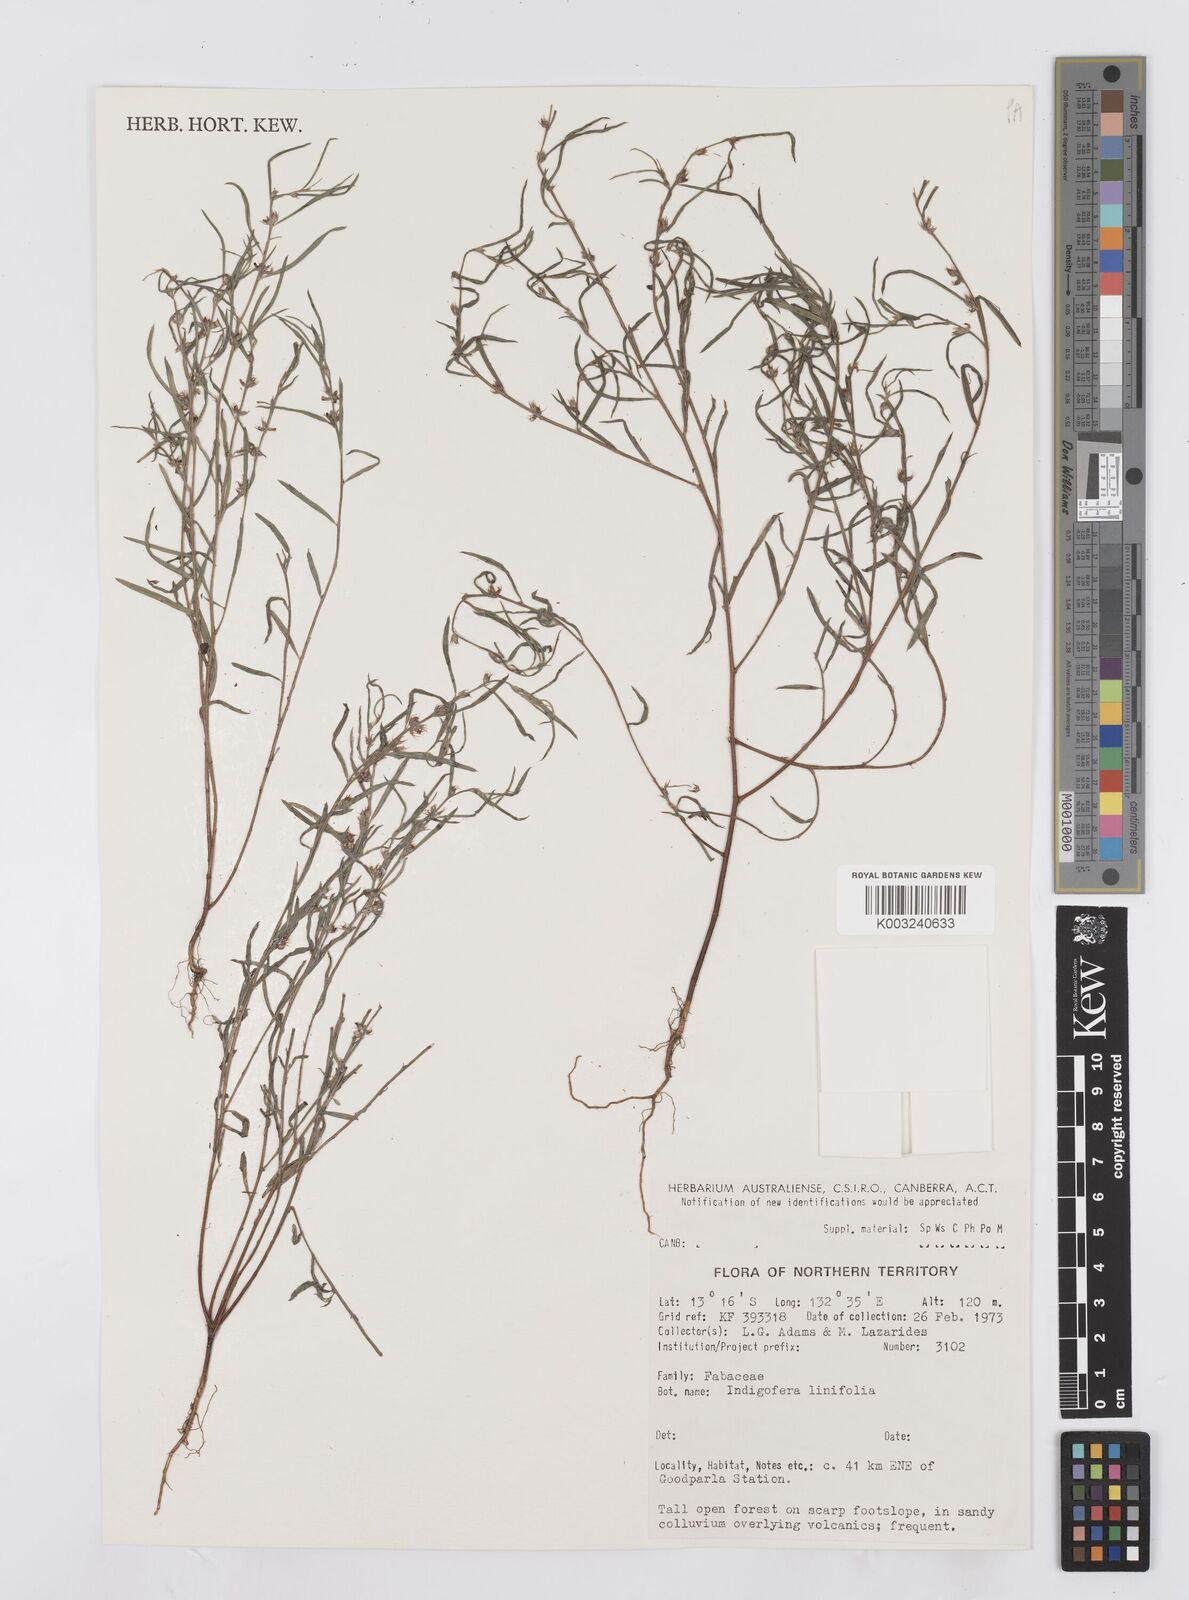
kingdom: Plantae
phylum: Tracheophyta
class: Magnoliopsida
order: Fabales
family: Fabaceae
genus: Indigofera
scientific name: Indigofera linifolia
